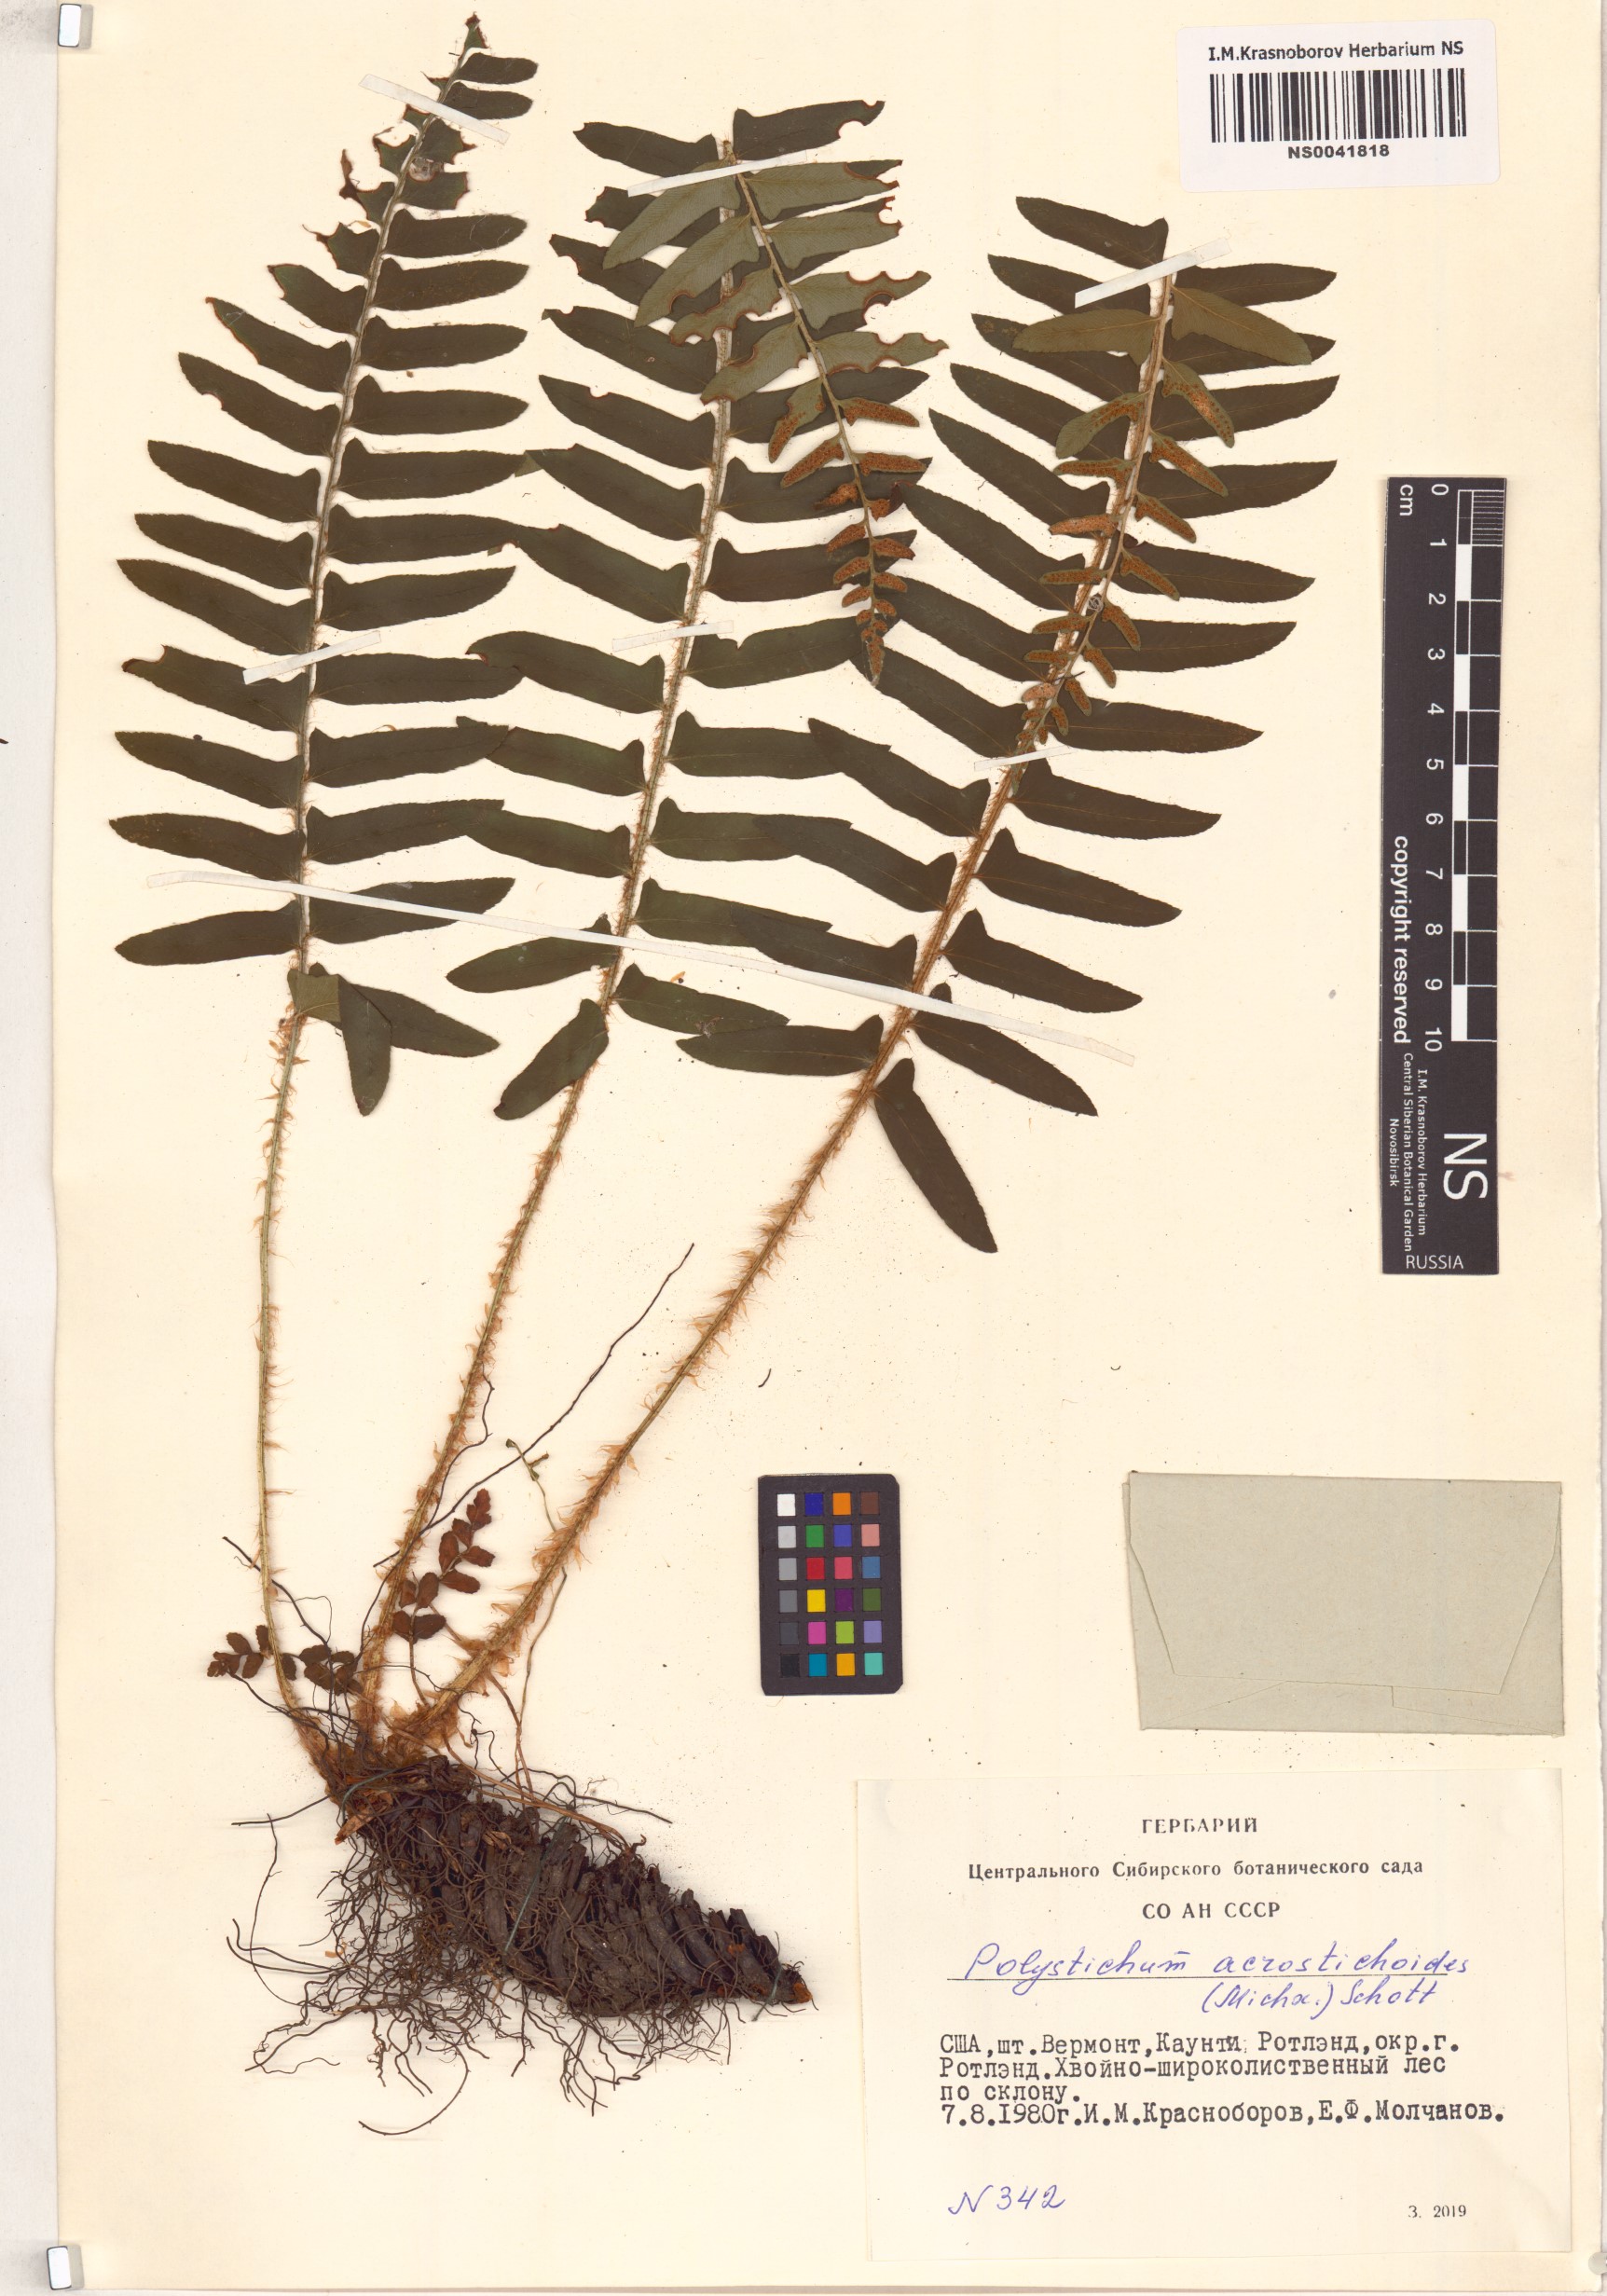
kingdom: Plantae
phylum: Tracheophyta
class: Polypodiopsida
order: Polypodiales
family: Dryopteridaceae
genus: Polystichum
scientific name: Polystichum acrostichoides
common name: Christmas fern
